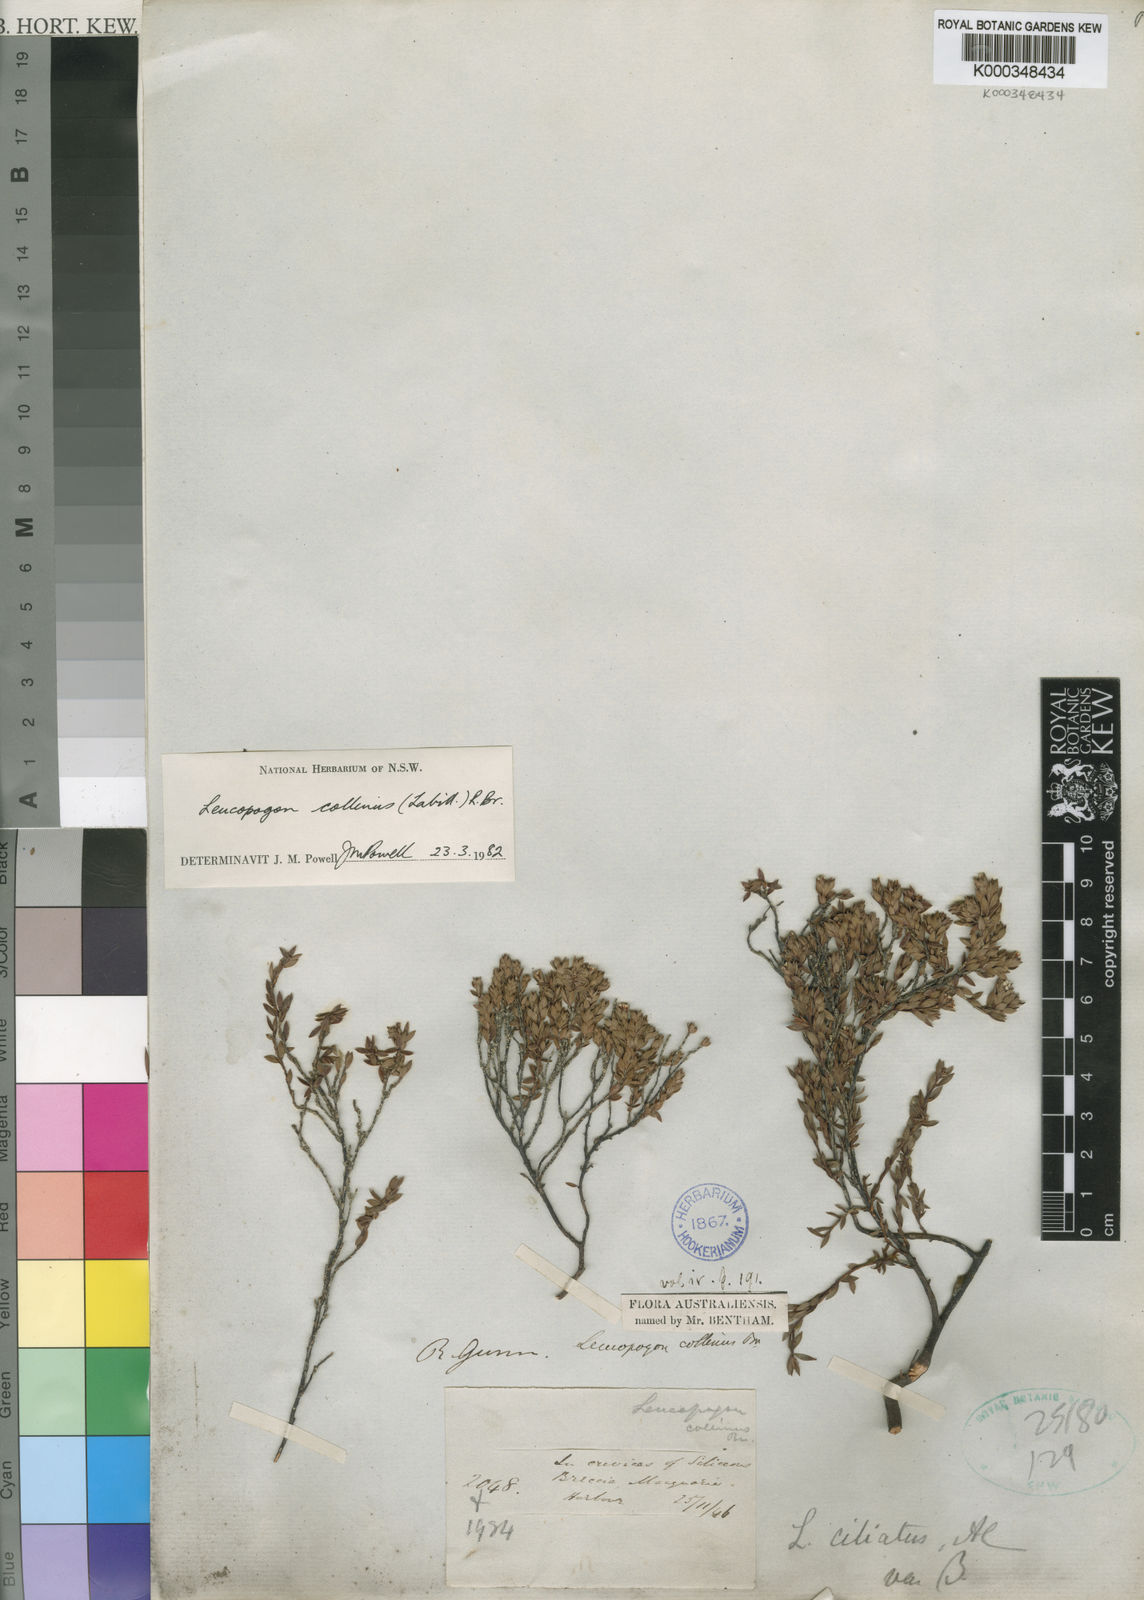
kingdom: Plantae
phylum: Tracheophyta
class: Magnoliopsida
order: Ericales
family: Ericaceae
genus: Leucopogon
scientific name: Leucopogon collinus
